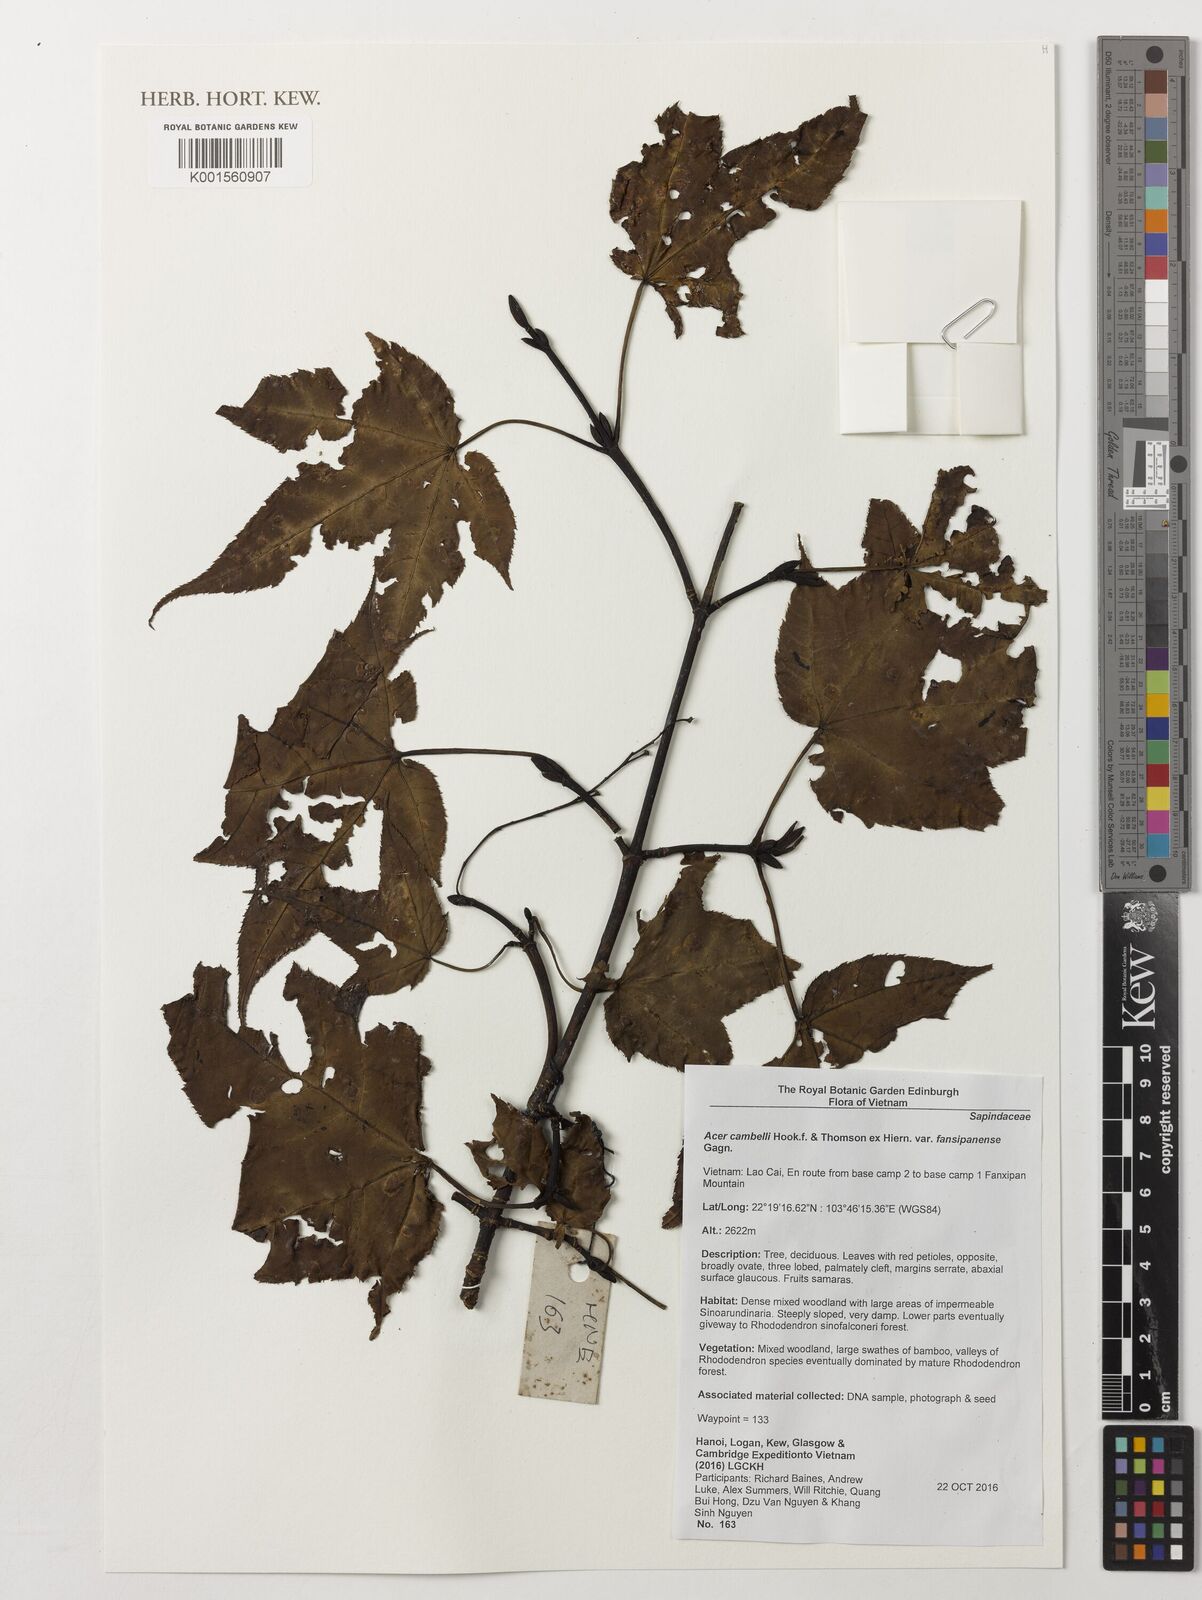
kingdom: Plantae
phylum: Tracheophyta
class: Magnoliopsida
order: Sapindales
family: Sapindaceae
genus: Acer
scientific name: Acer campbellii
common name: Campbell's maple
